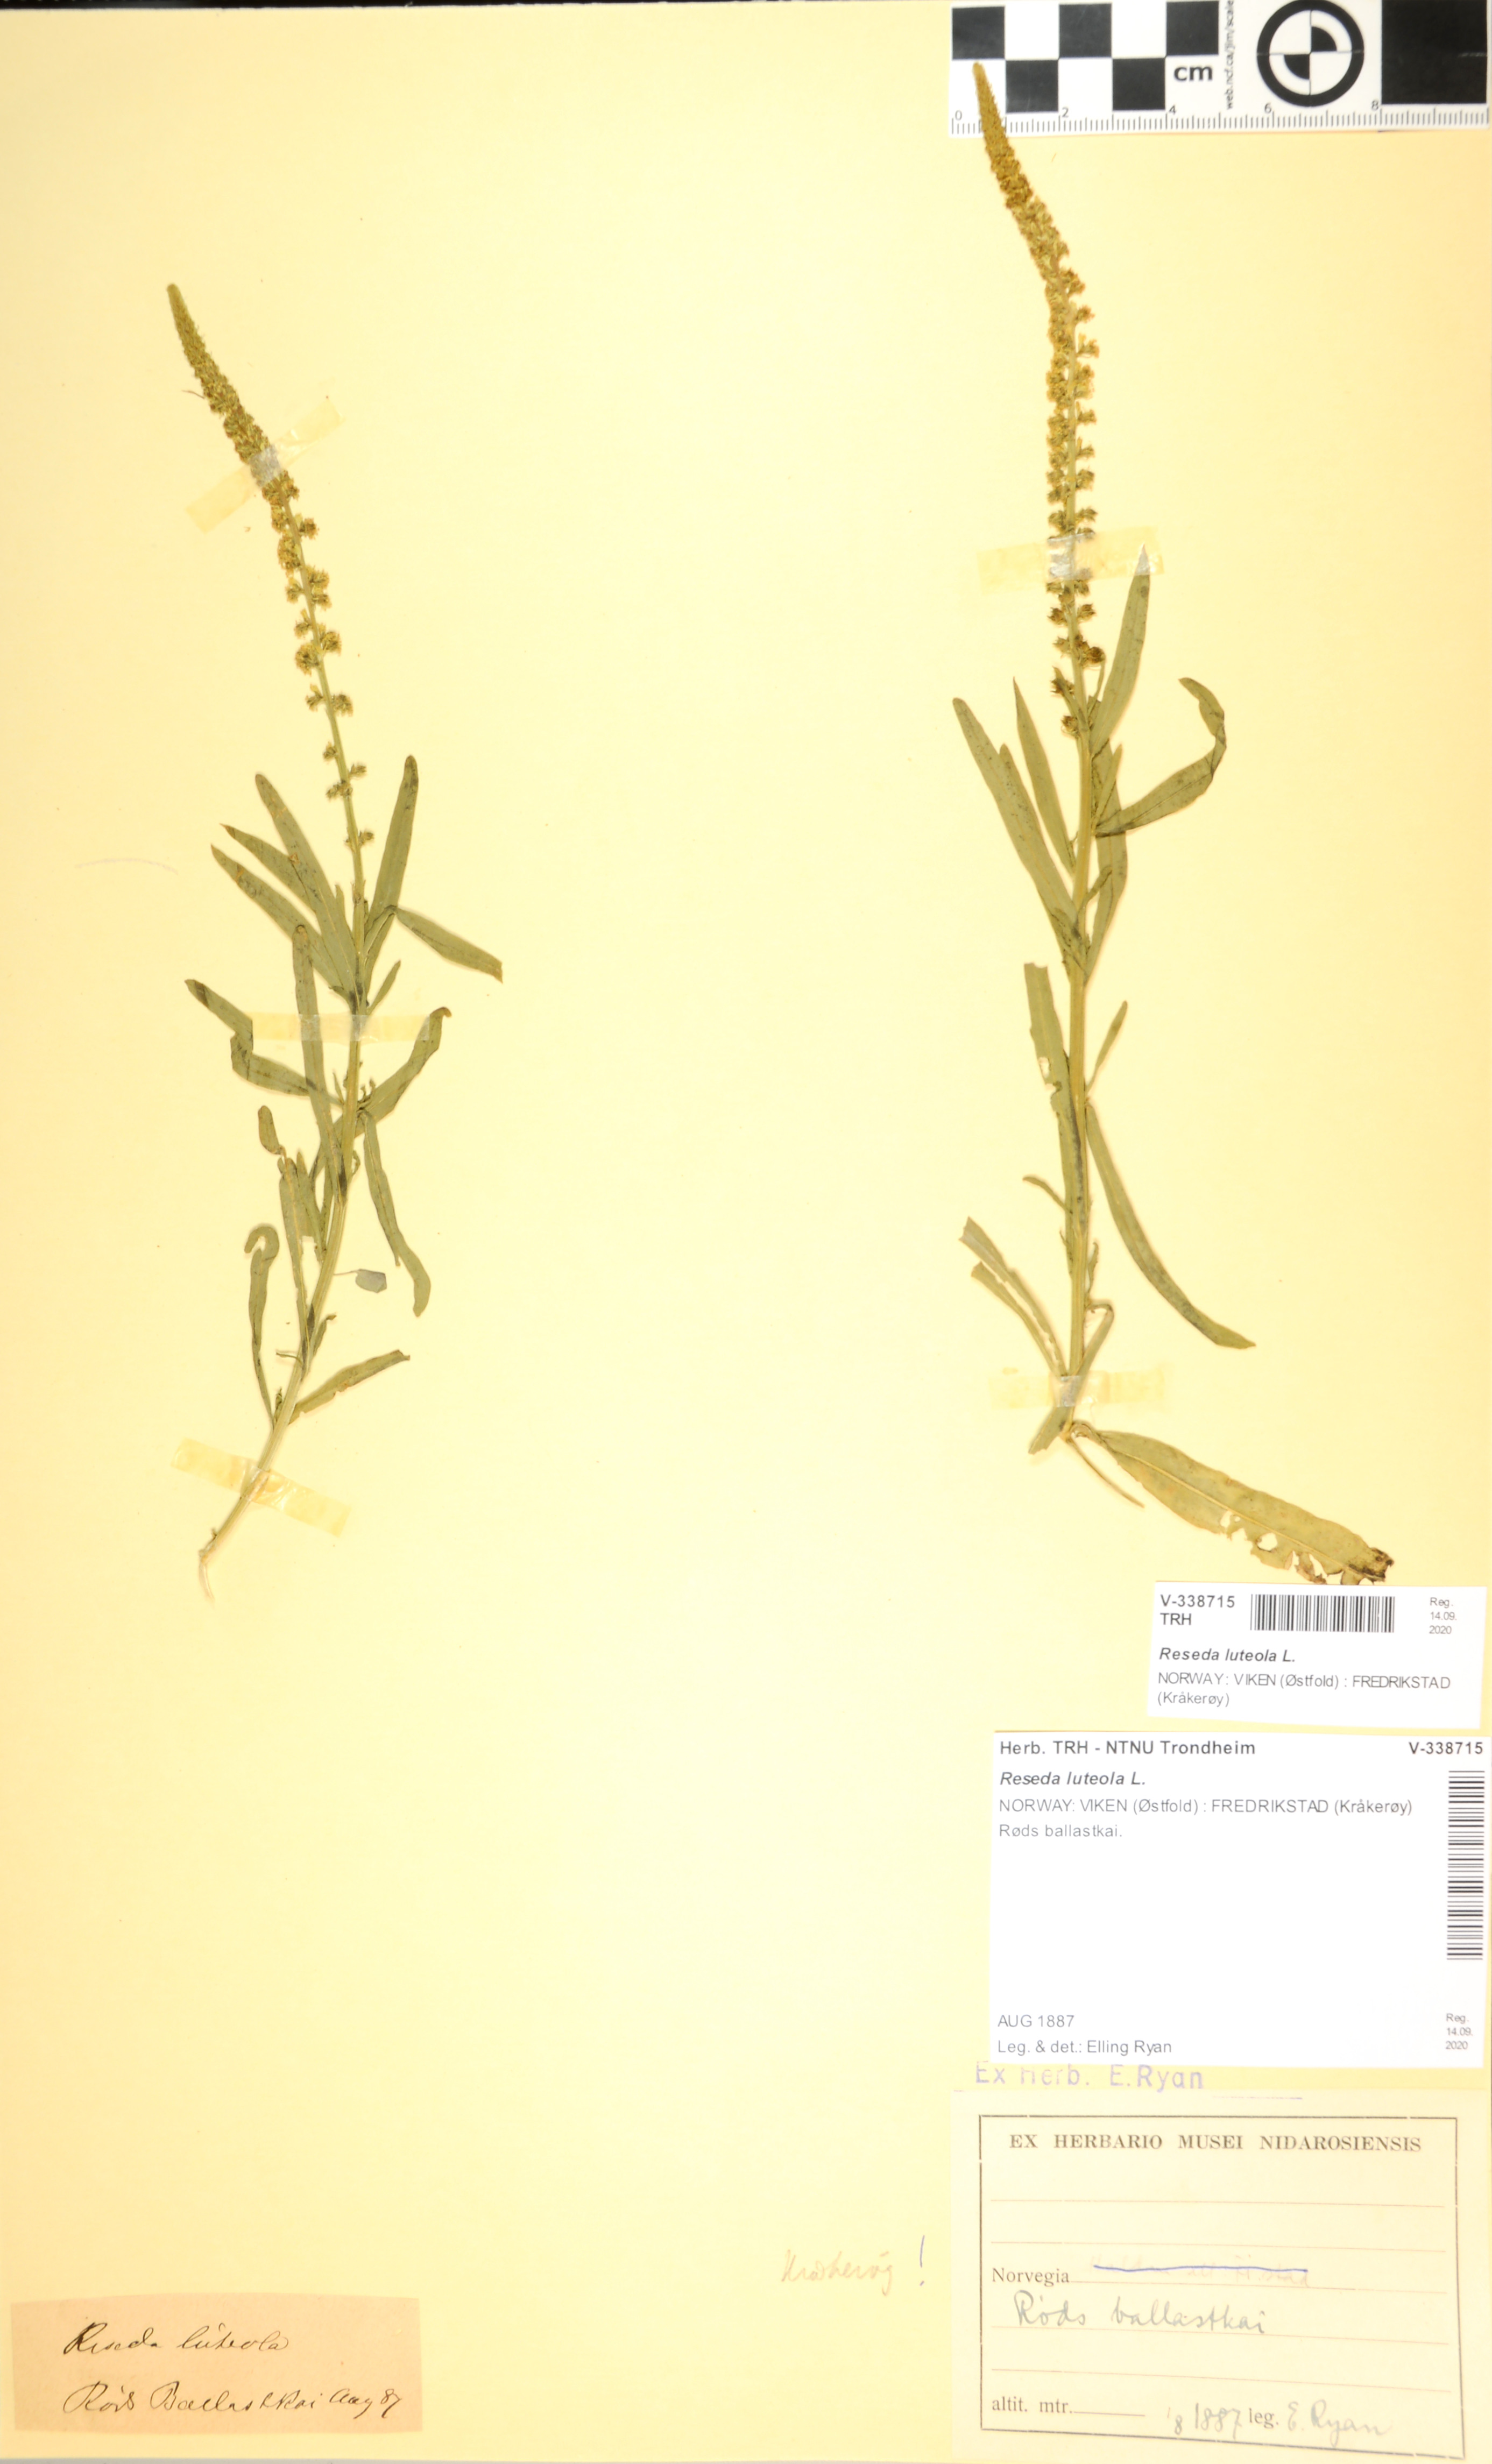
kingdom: Plantae
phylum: Tracheophyta
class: Magnoliopsida
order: Brassicales
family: Resedaceae
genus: Reseda
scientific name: Reseda luteola
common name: Weld
